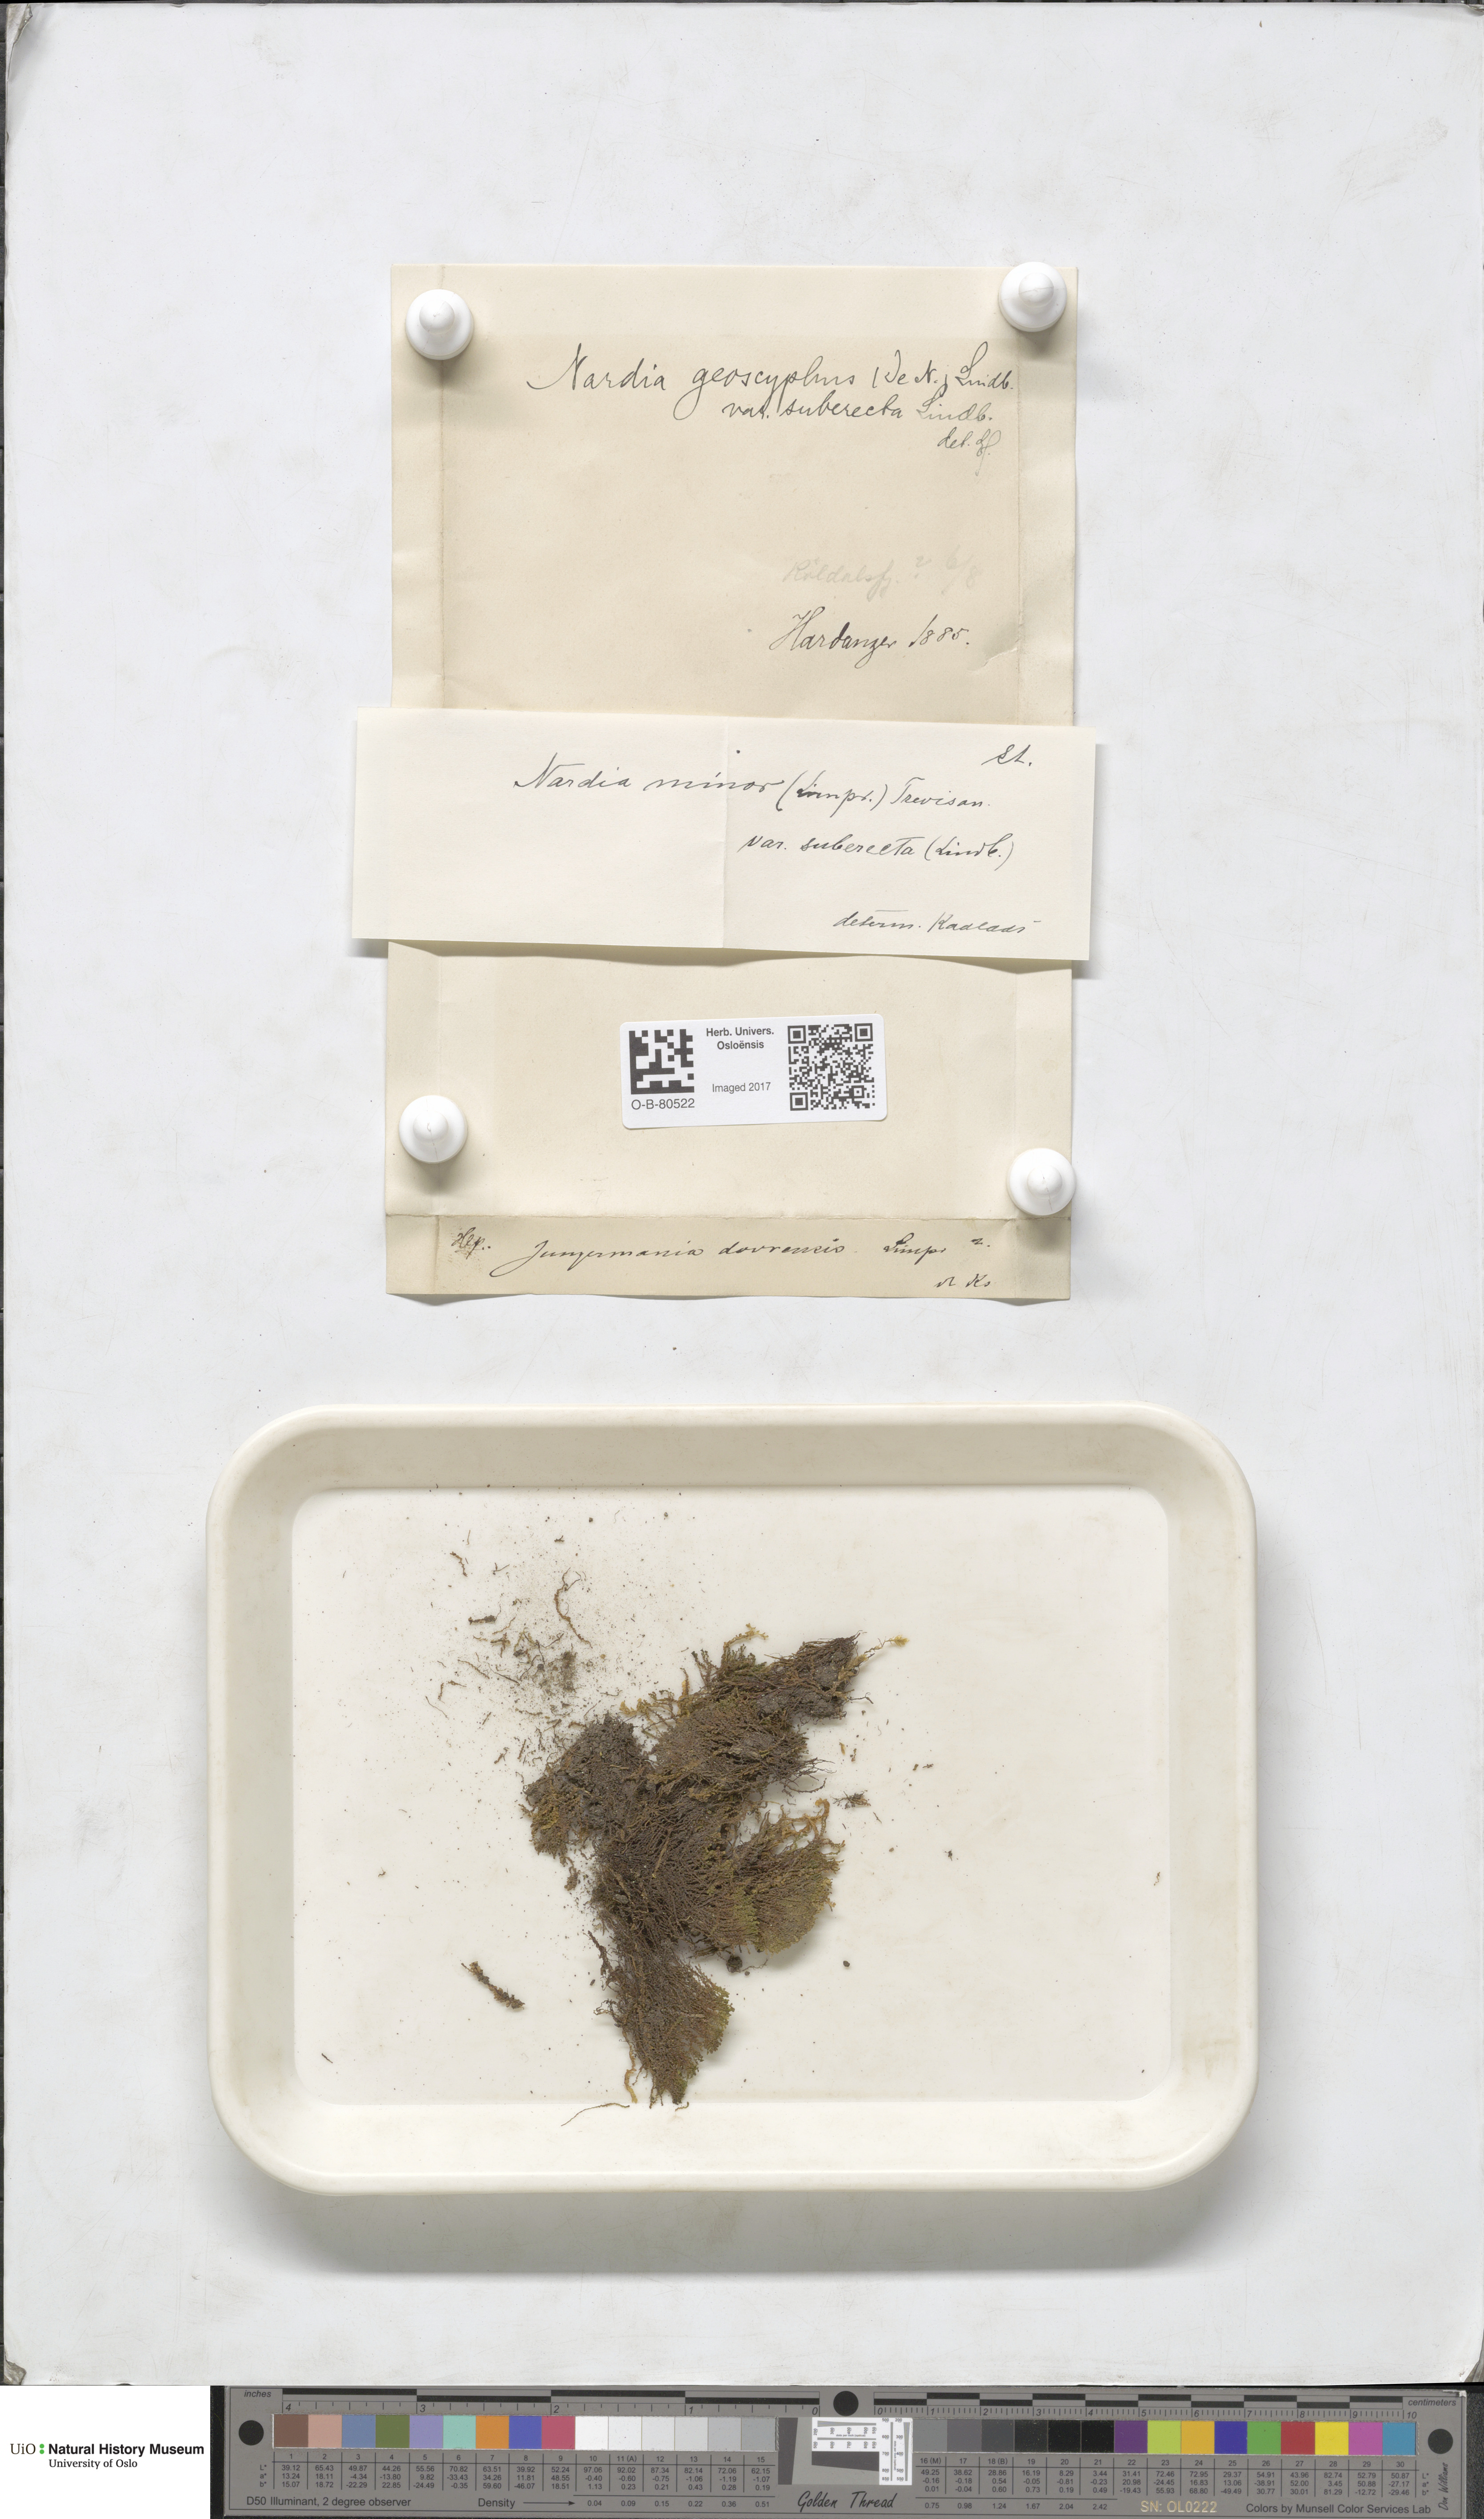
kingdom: Plantae
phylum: Marchantiophyta
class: Jungermanniopsida
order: Jungermanniales
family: Gymnomitriaceae
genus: Nardia
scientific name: Nardia geoscyphus
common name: Earth-cup flapwort
